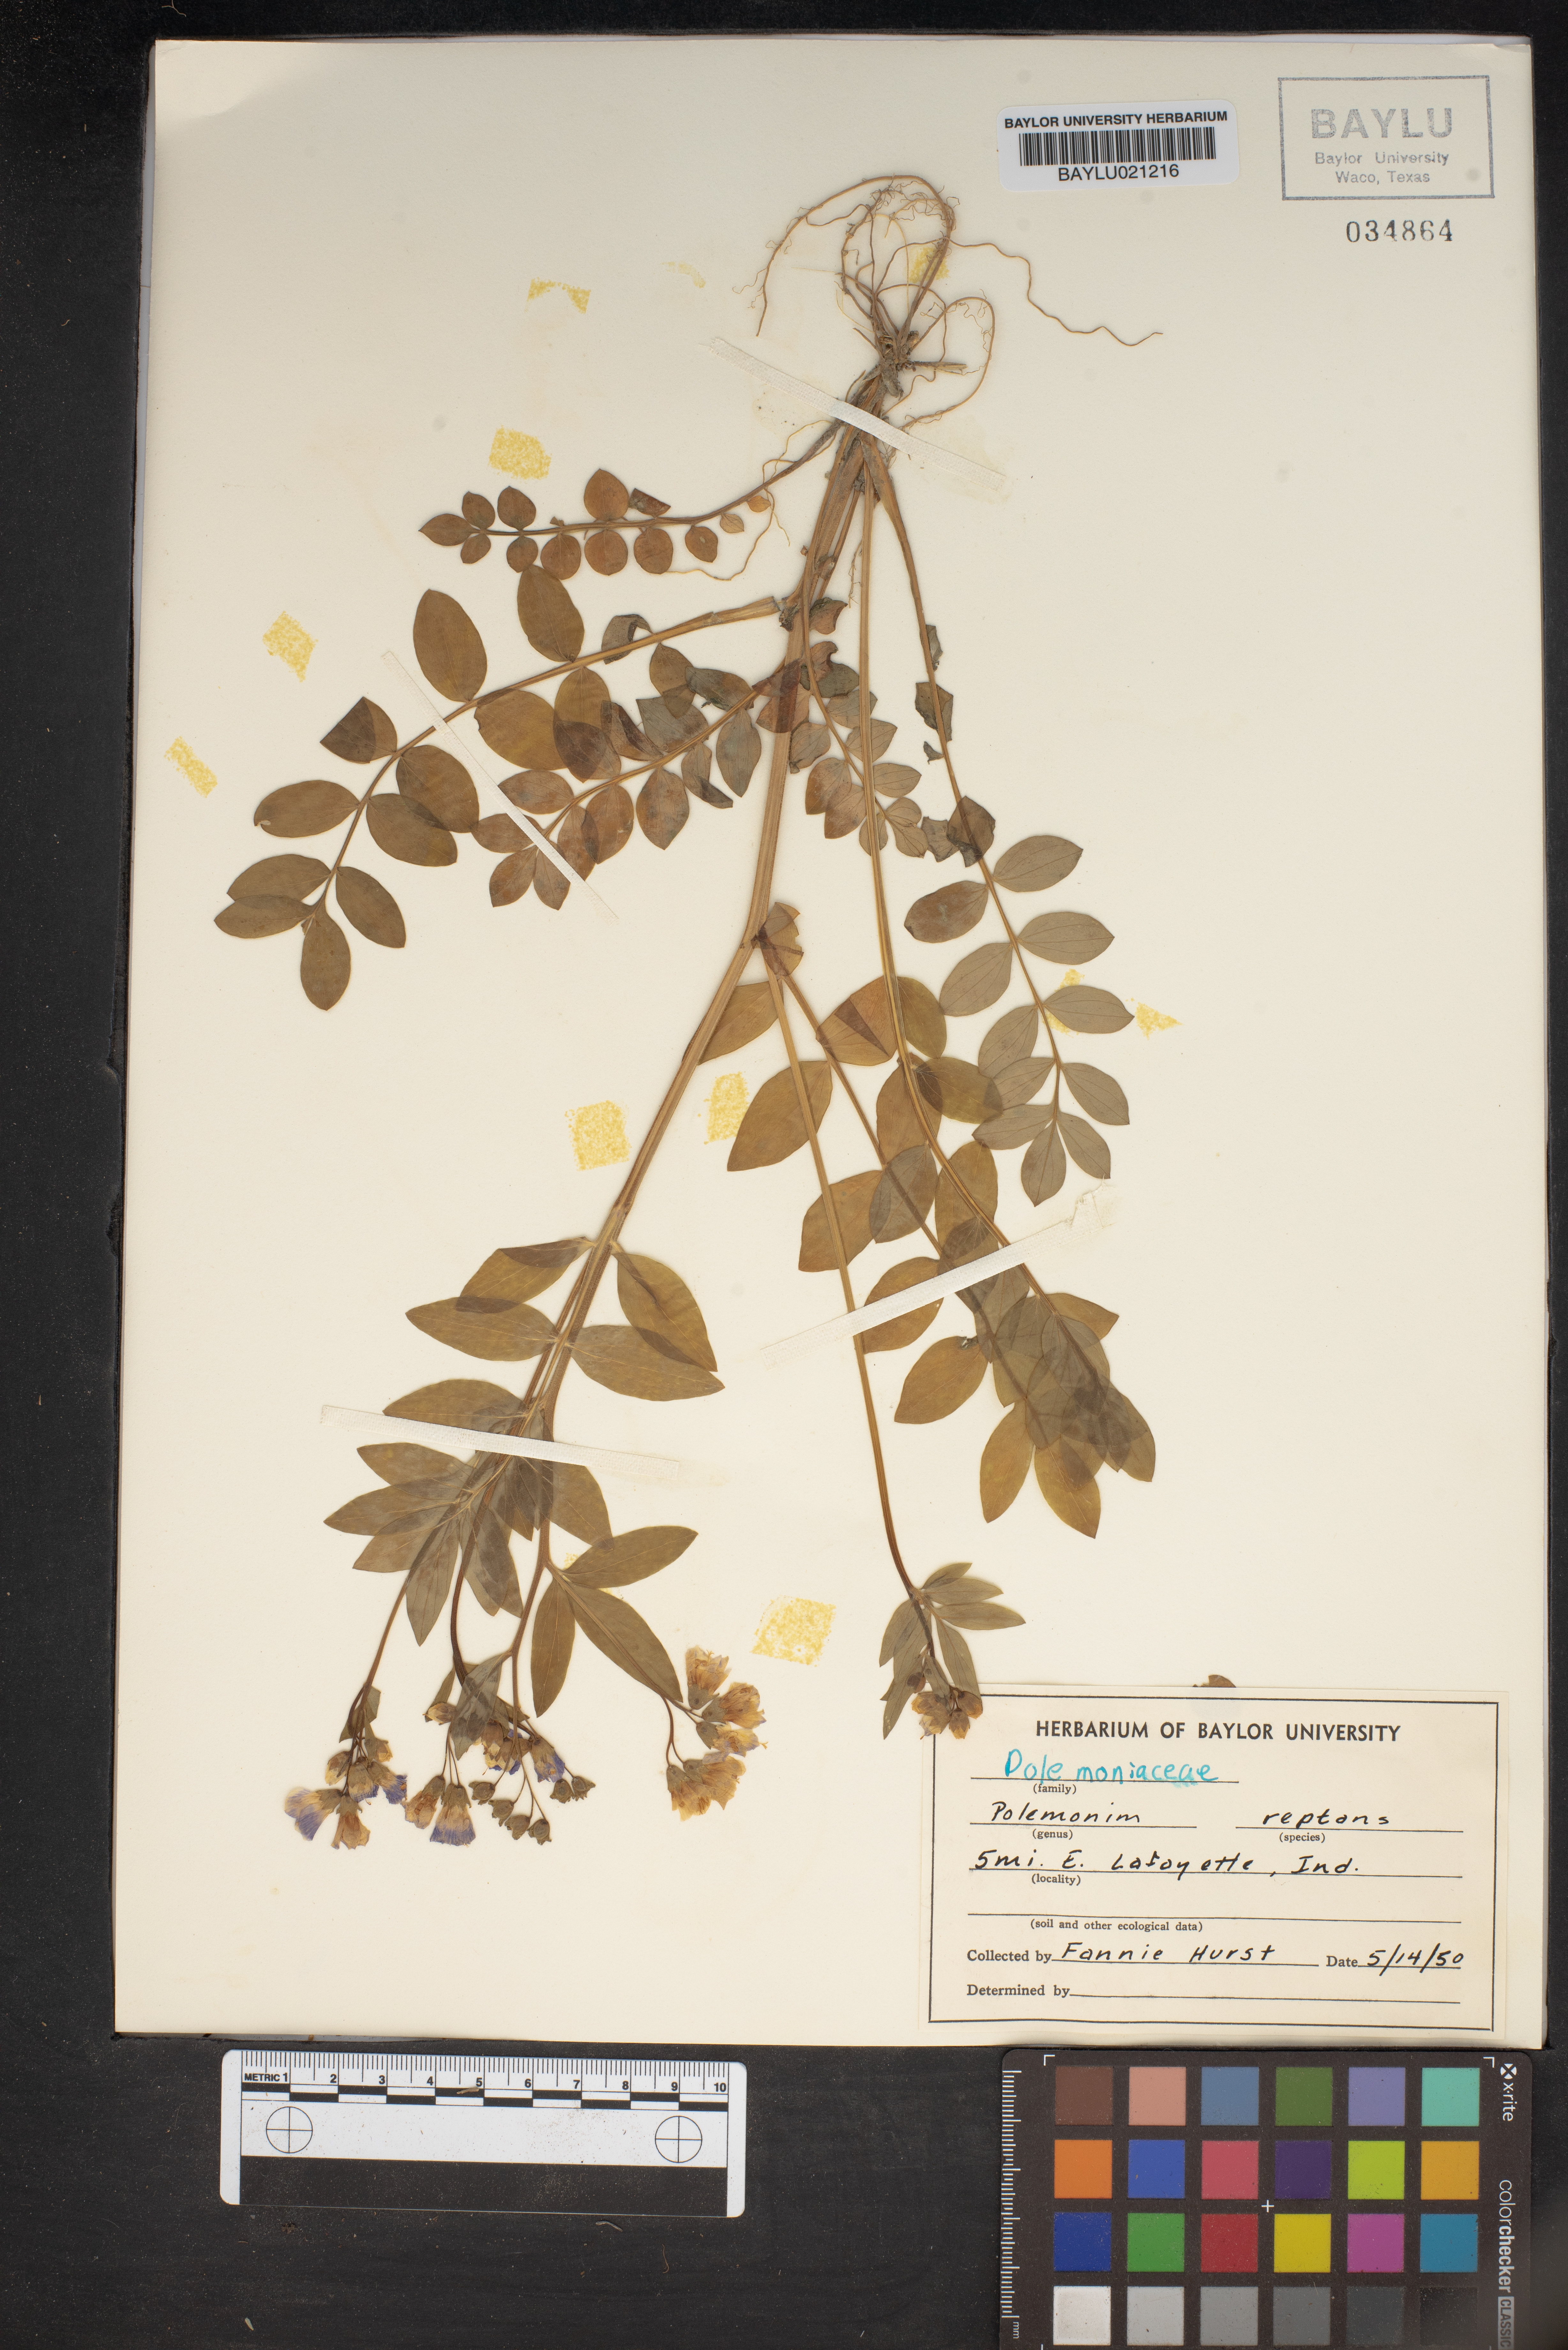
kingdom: Plantae
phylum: Tracheophyta
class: Magnoliopsida
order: Ericales
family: Polemoniaceae
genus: Polemonium
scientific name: Polemonium reptans
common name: Creeping jacob's-ladder
